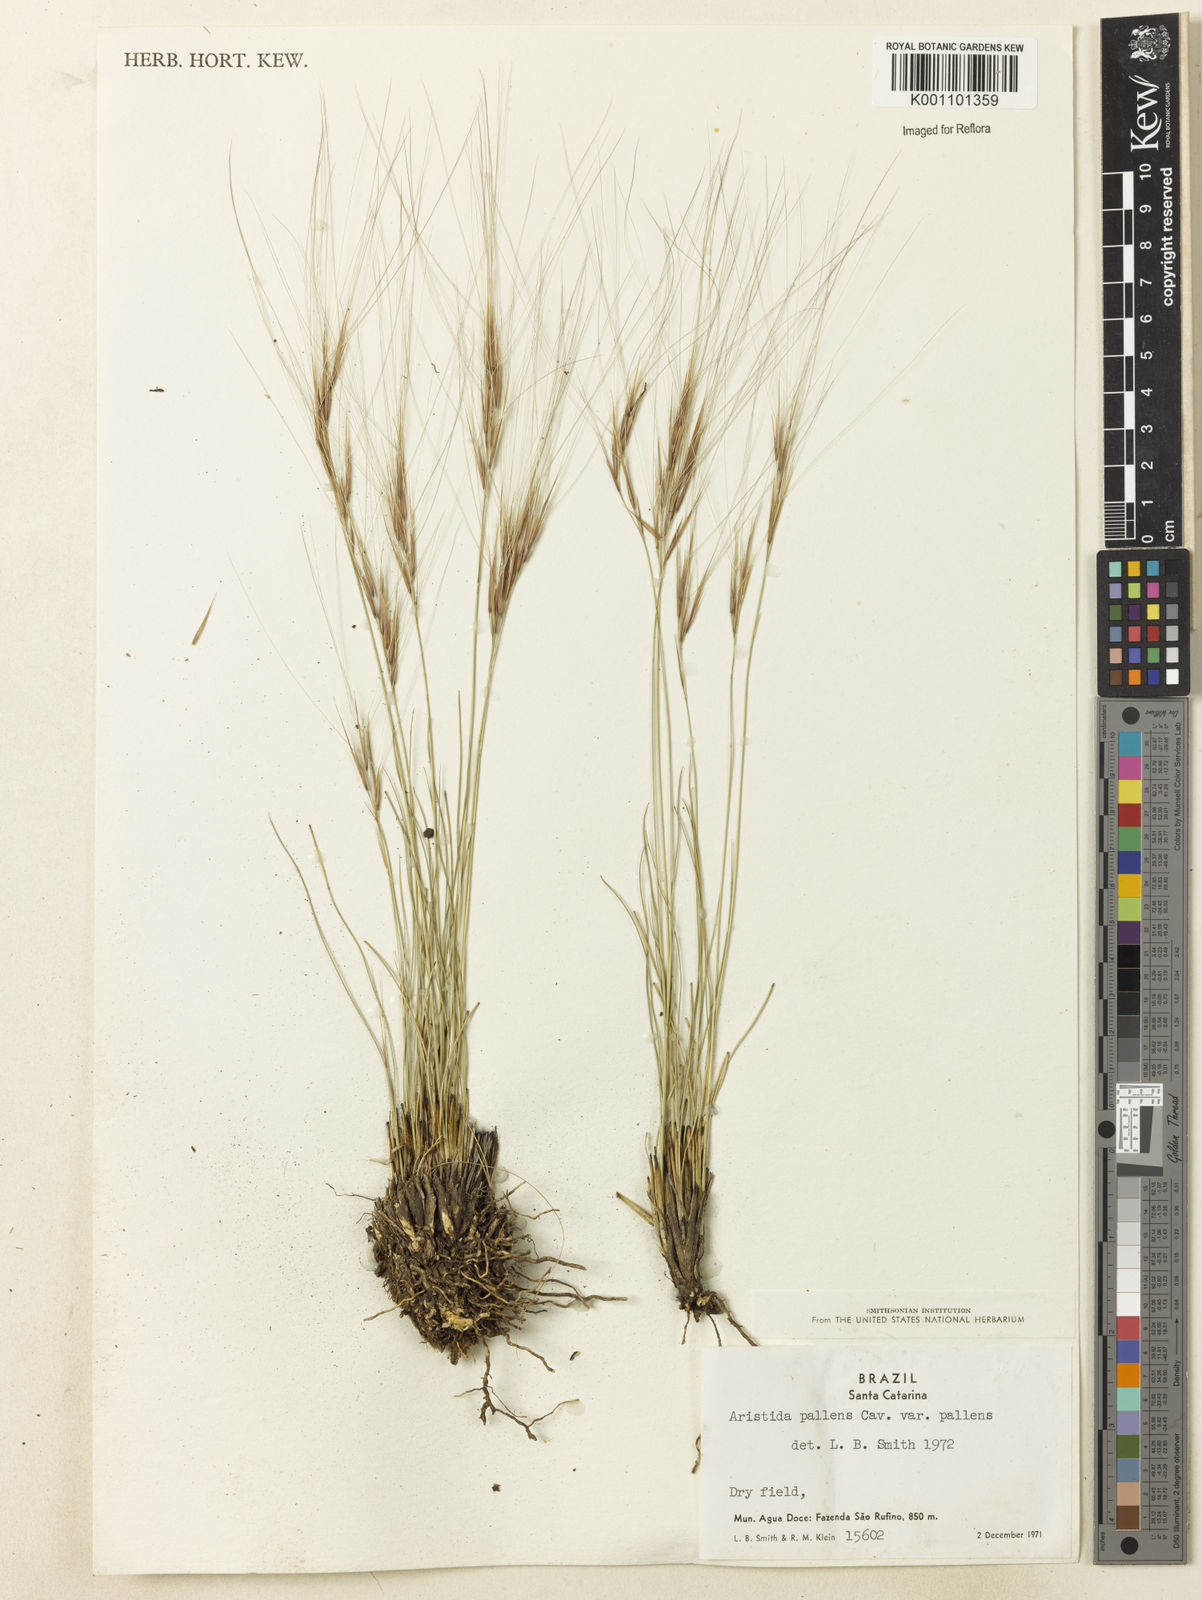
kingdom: Plantae
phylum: Tracheophyta
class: Liliopsida
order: Poales
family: Poaceae
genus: Aristida
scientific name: Aristida pallens
